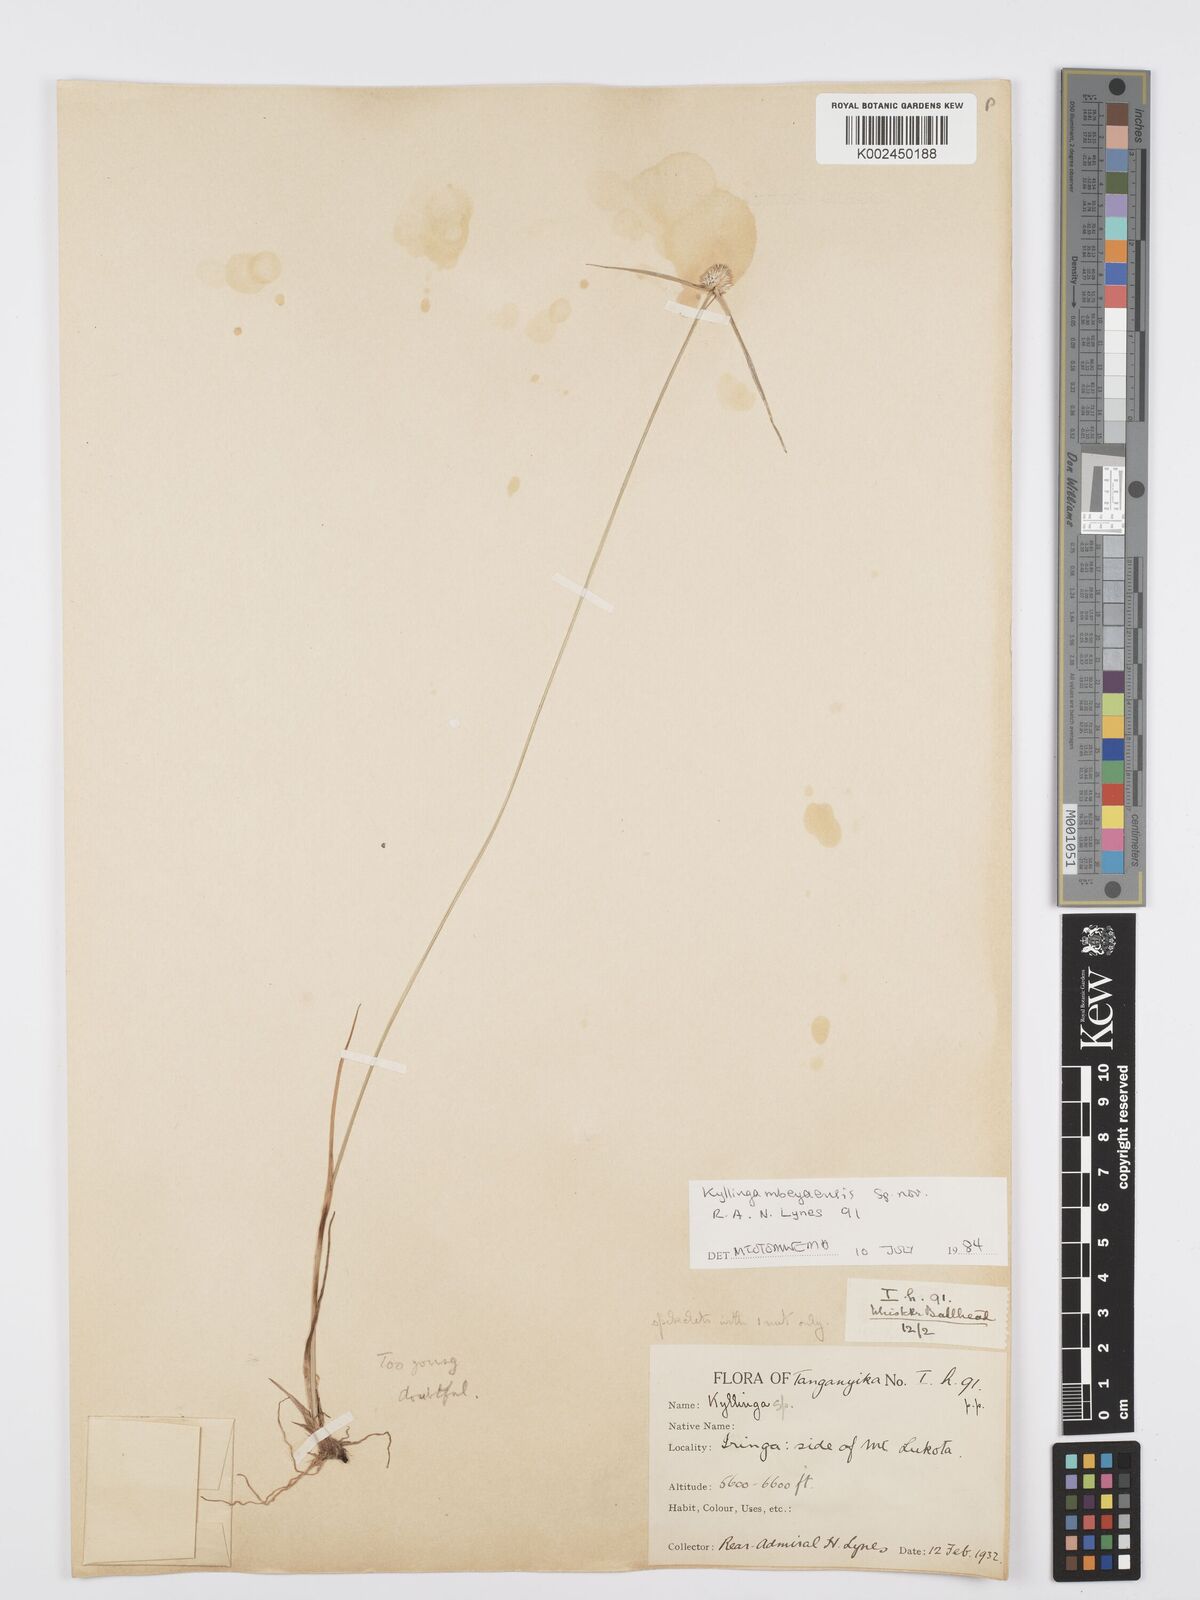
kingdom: Plantae
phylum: Tracheophyta
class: Liliopsida
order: Poales
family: Cyperaceae
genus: Cyperus
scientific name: Cyperus
